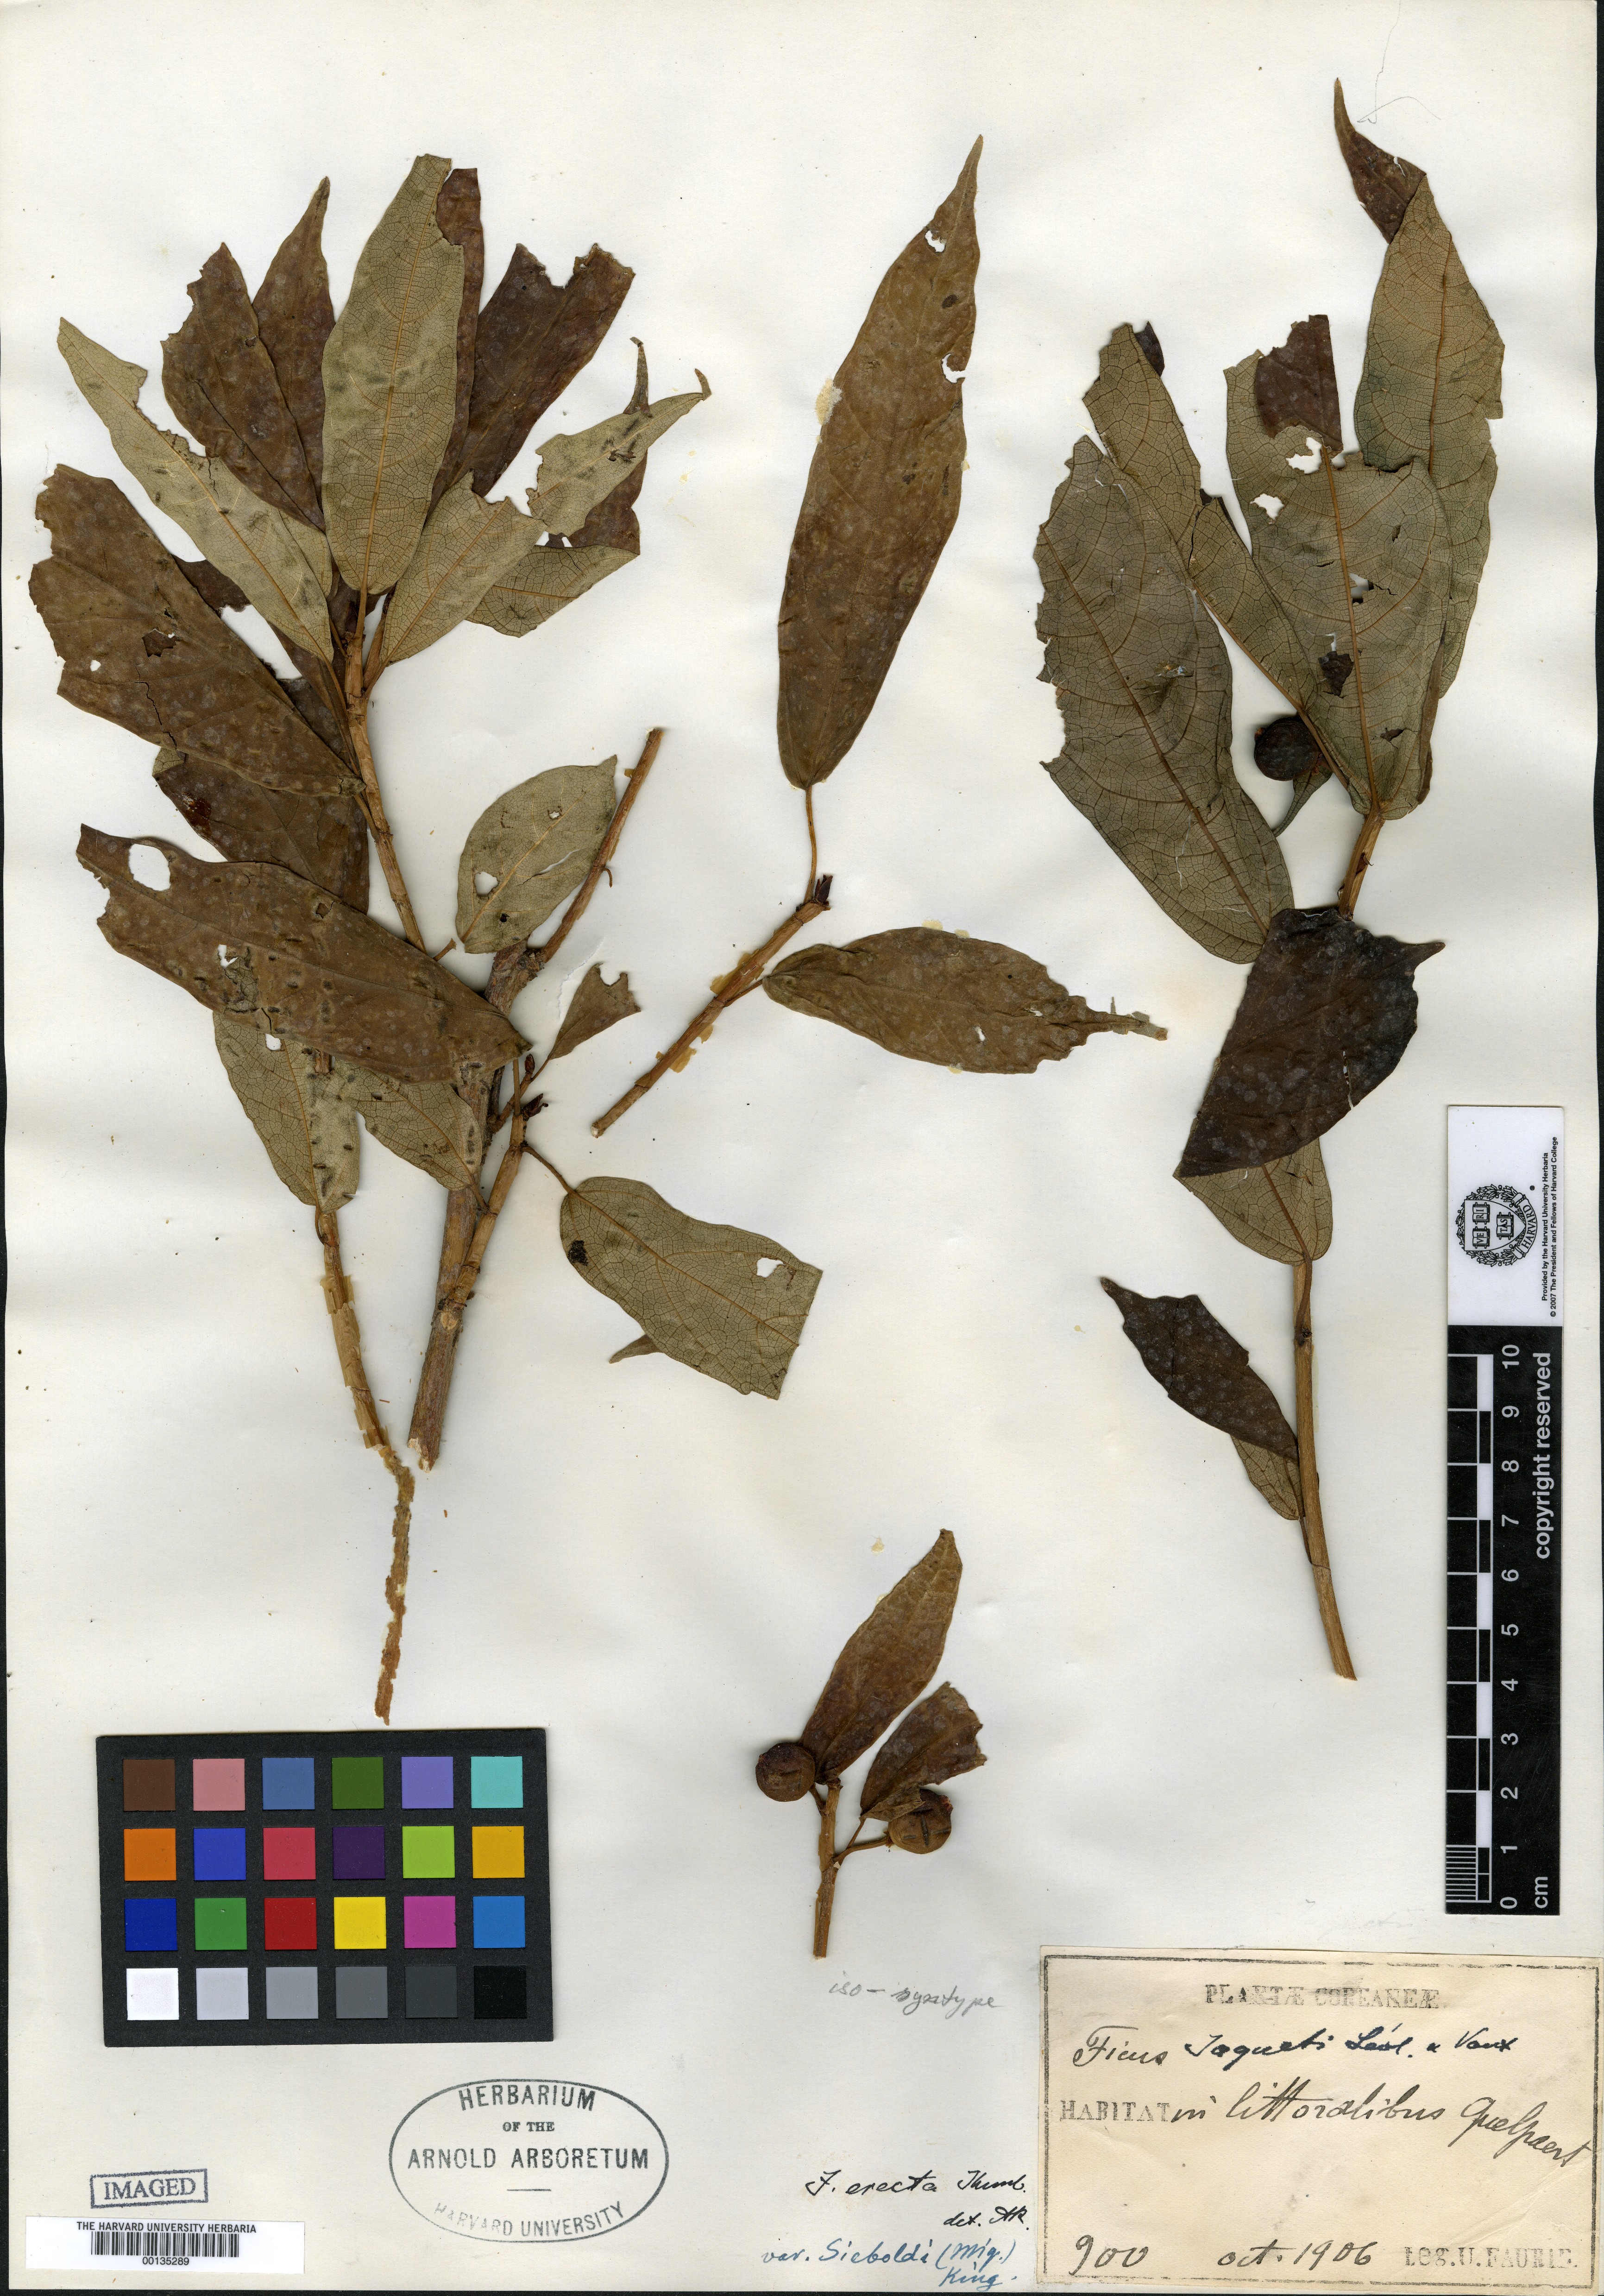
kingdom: Plantae
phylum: Tracheophyta
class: Magnoliopsida
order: Rosales
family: Moraceae
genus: Ficus
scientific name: Ficus erecta
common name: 천선과나무
